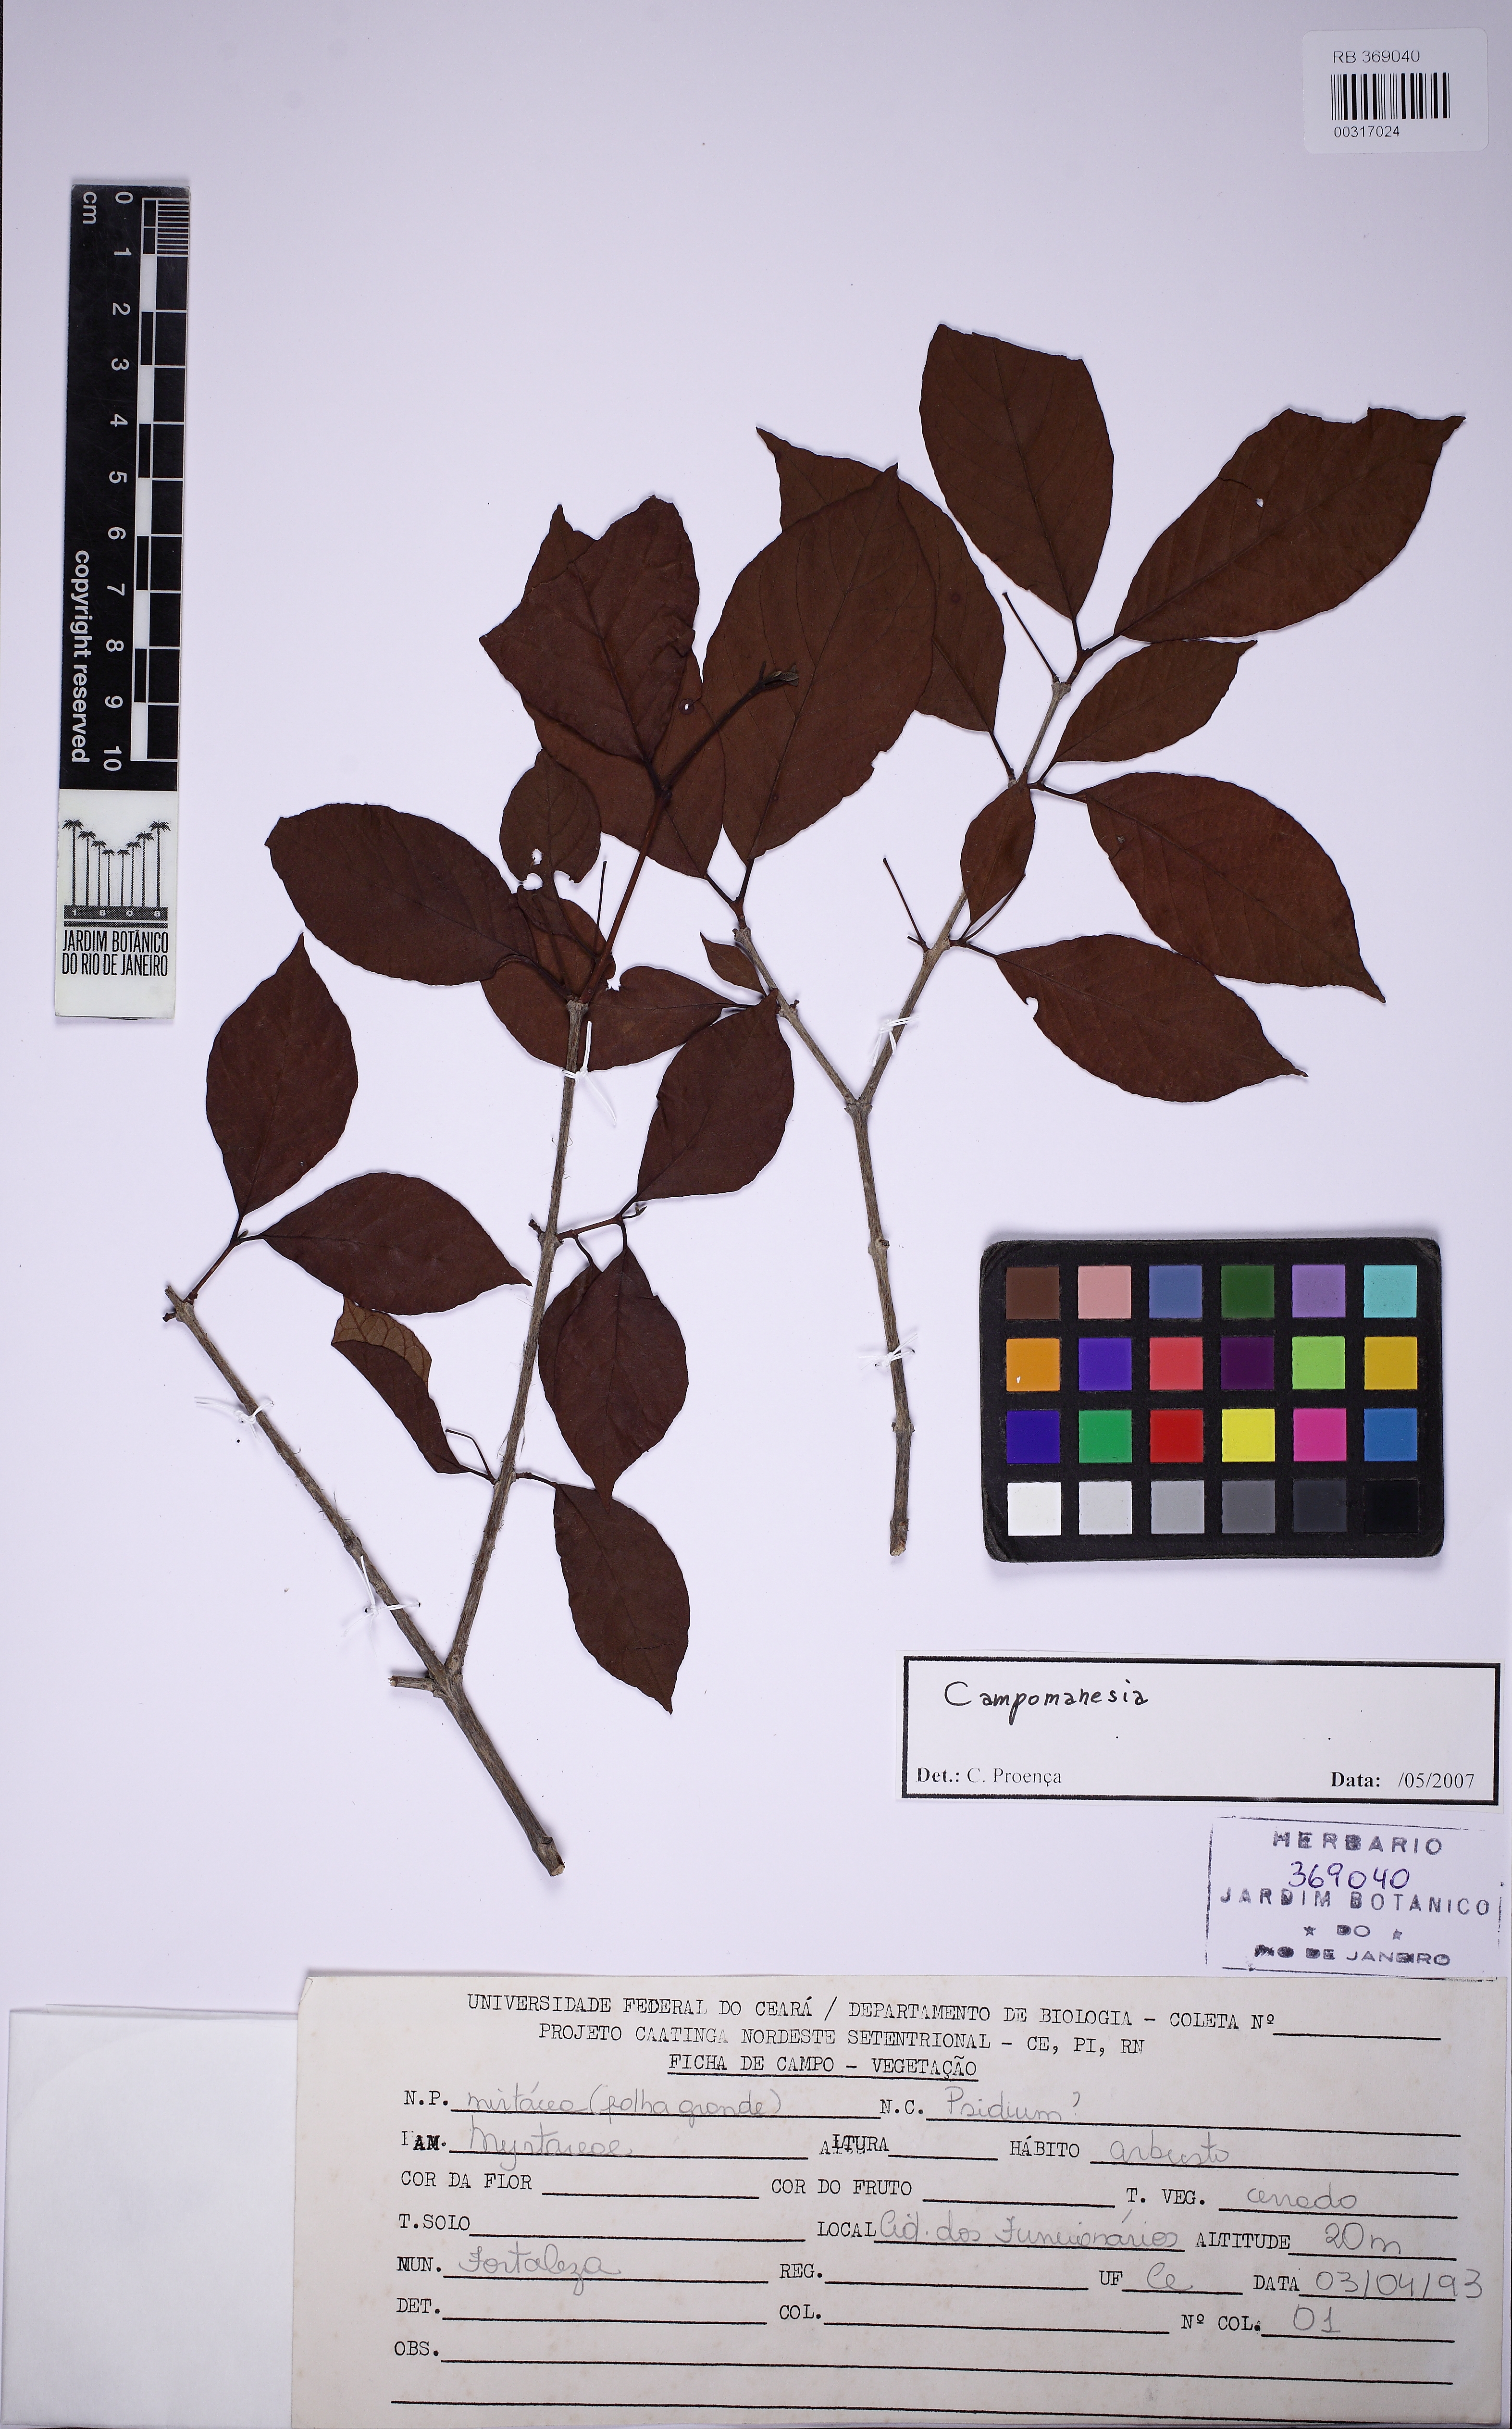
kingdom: Plantae
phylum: Tracheophyta
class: Magnoliopsida
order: Myrtales
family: Myrtaceae
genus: Campomanesia
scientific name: Campomanesia guaviroba
